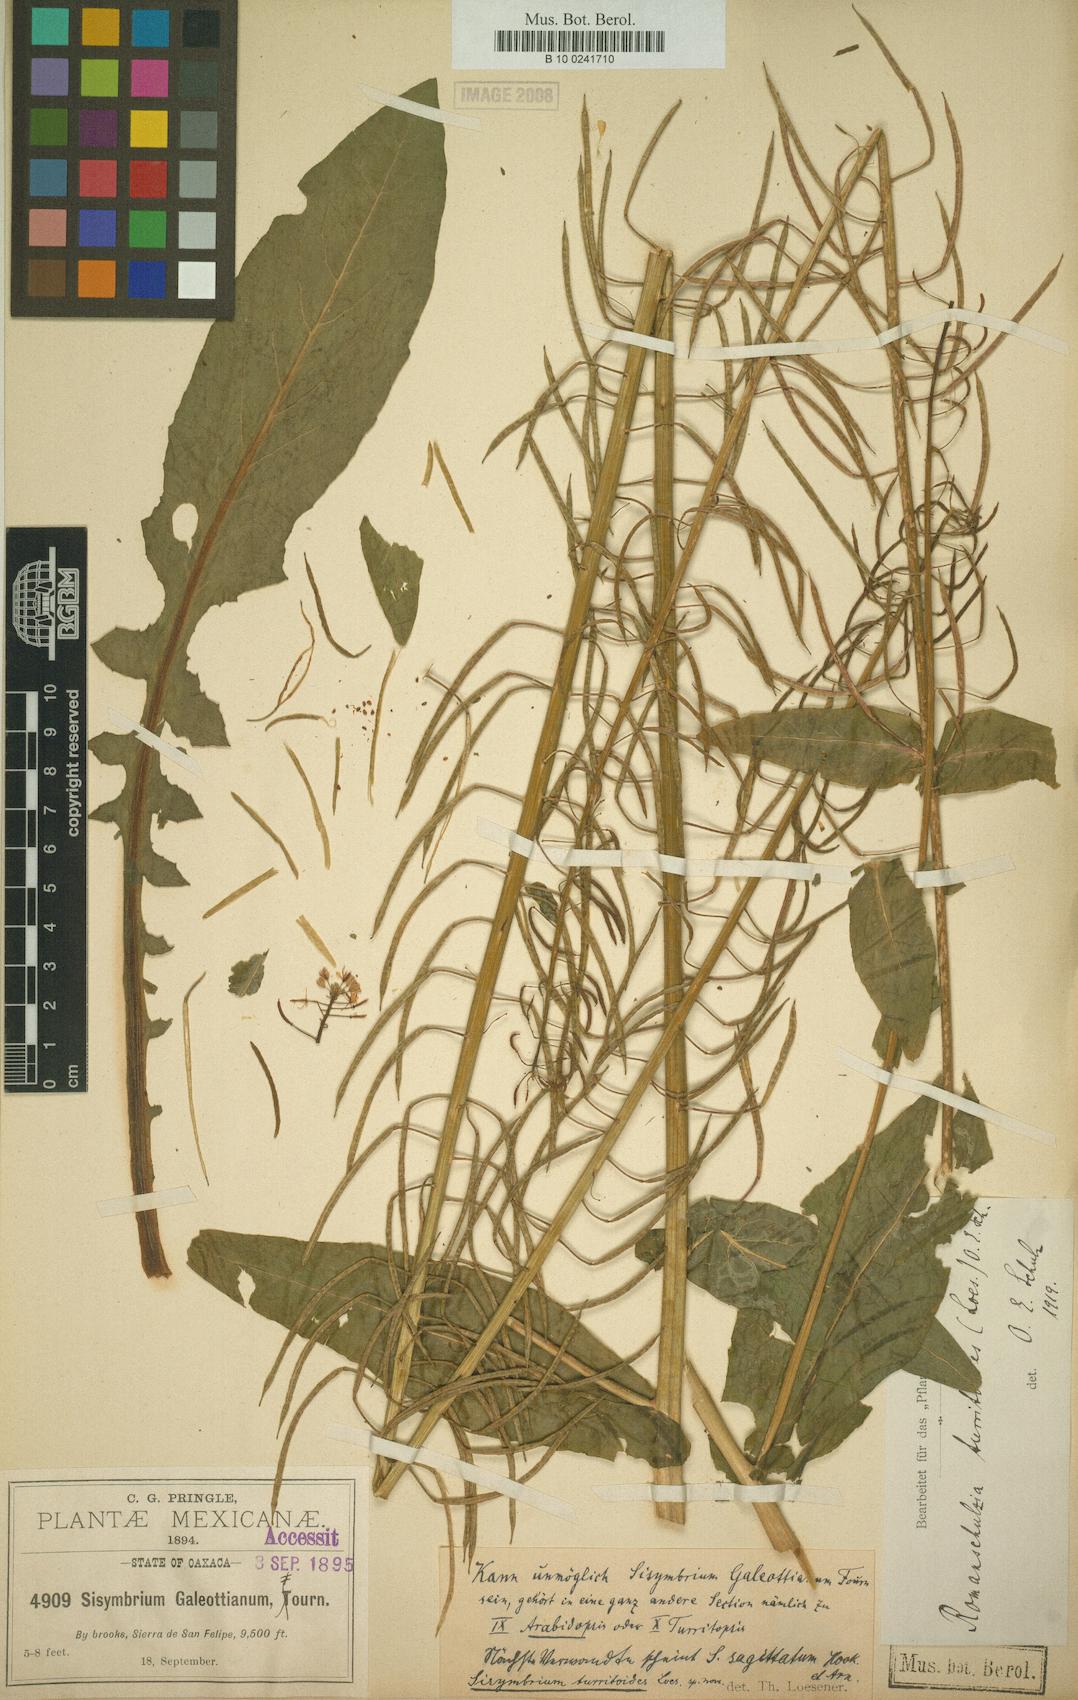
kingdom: Plantae
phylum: Tracheophyta
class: Magnoliopsida
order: Brassicales
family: Brassicaceae
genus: Romanschulzia
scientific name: Romanschulzia orizabae
